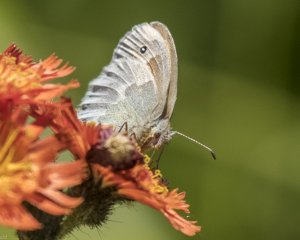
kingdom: Animalia
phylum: Arthropoda
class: Insecta
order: Lepidoptera
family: Nymphalidae
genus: Coenonympha
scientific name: Coenonympha tullia
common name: Large Heath
